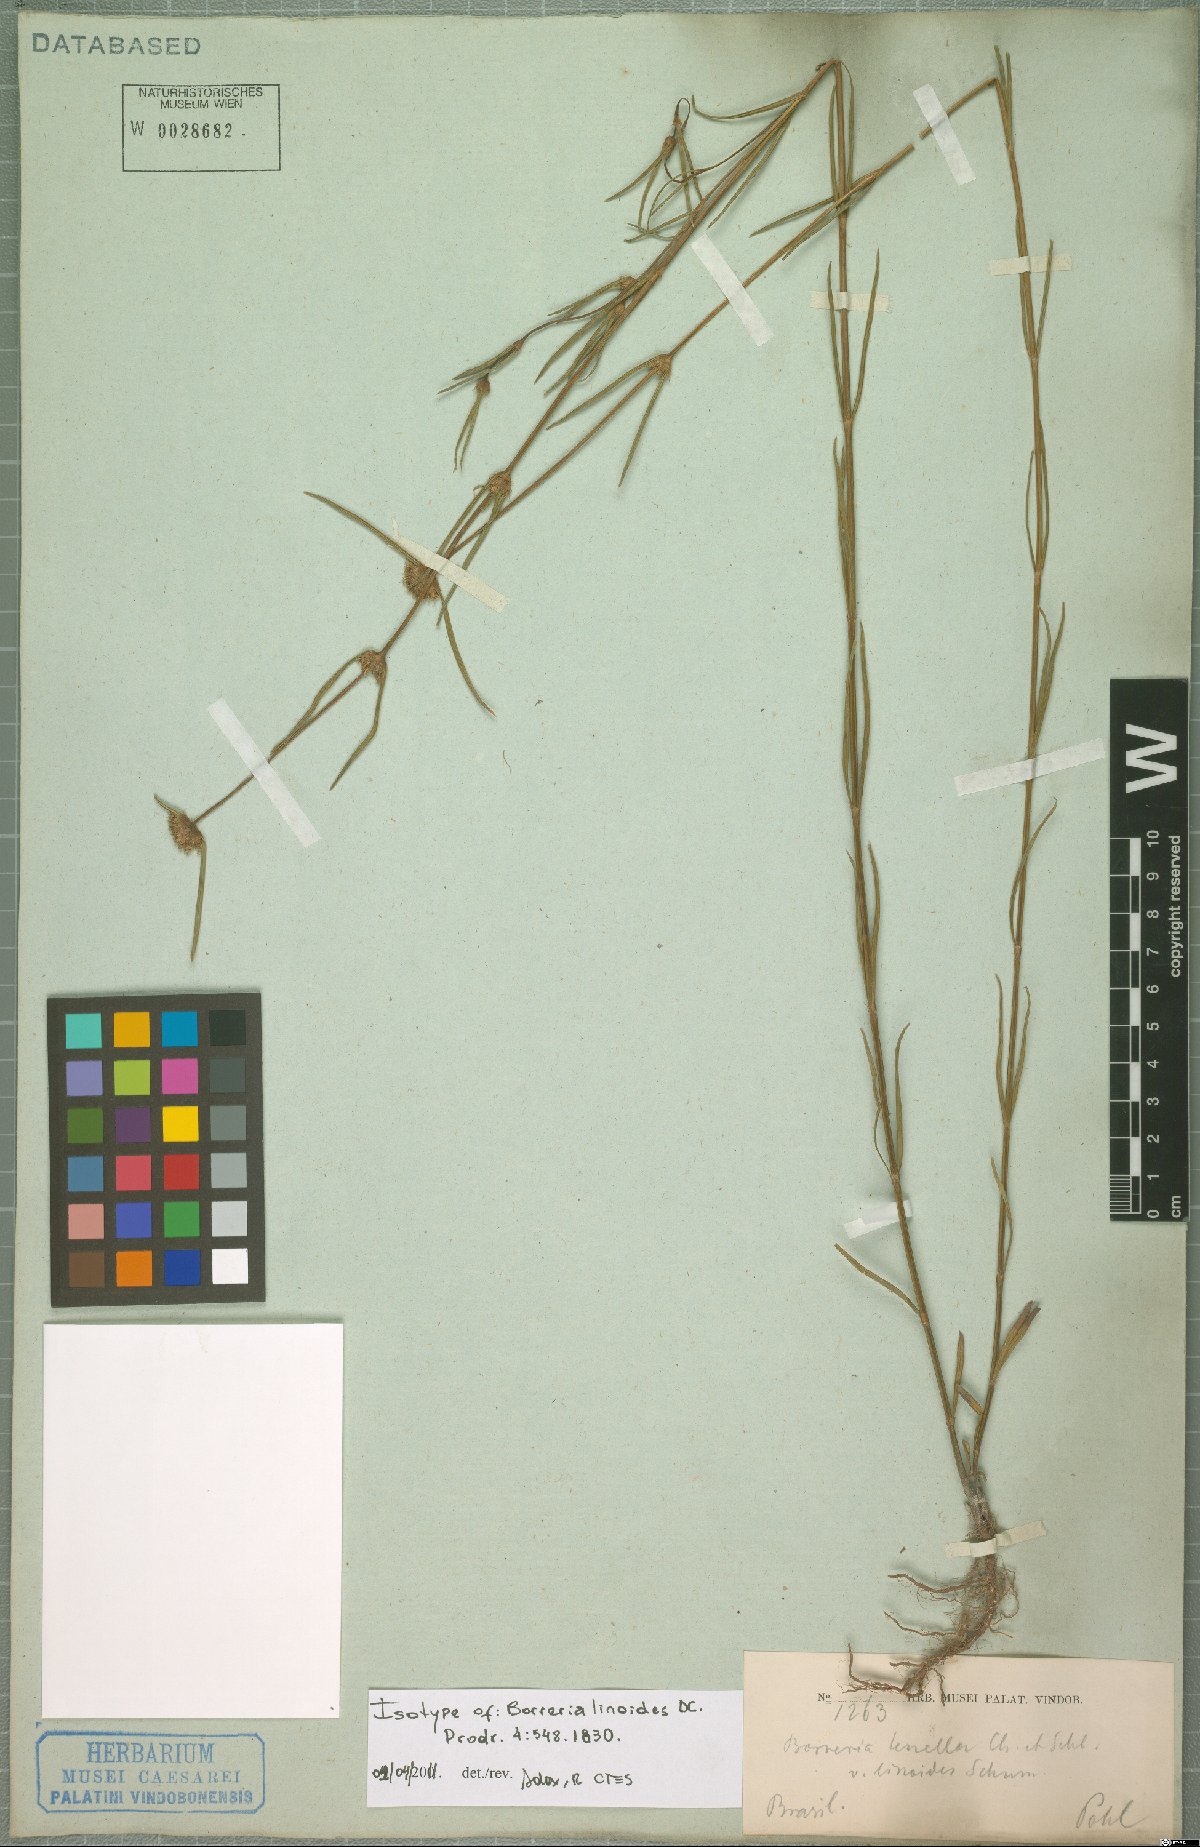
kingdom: Plantae
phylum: Tracheophyta
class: Magnoliopsida
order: Gentianales
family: Rubiaceae
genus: Spermacoce
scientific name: Spermacoce linoides
